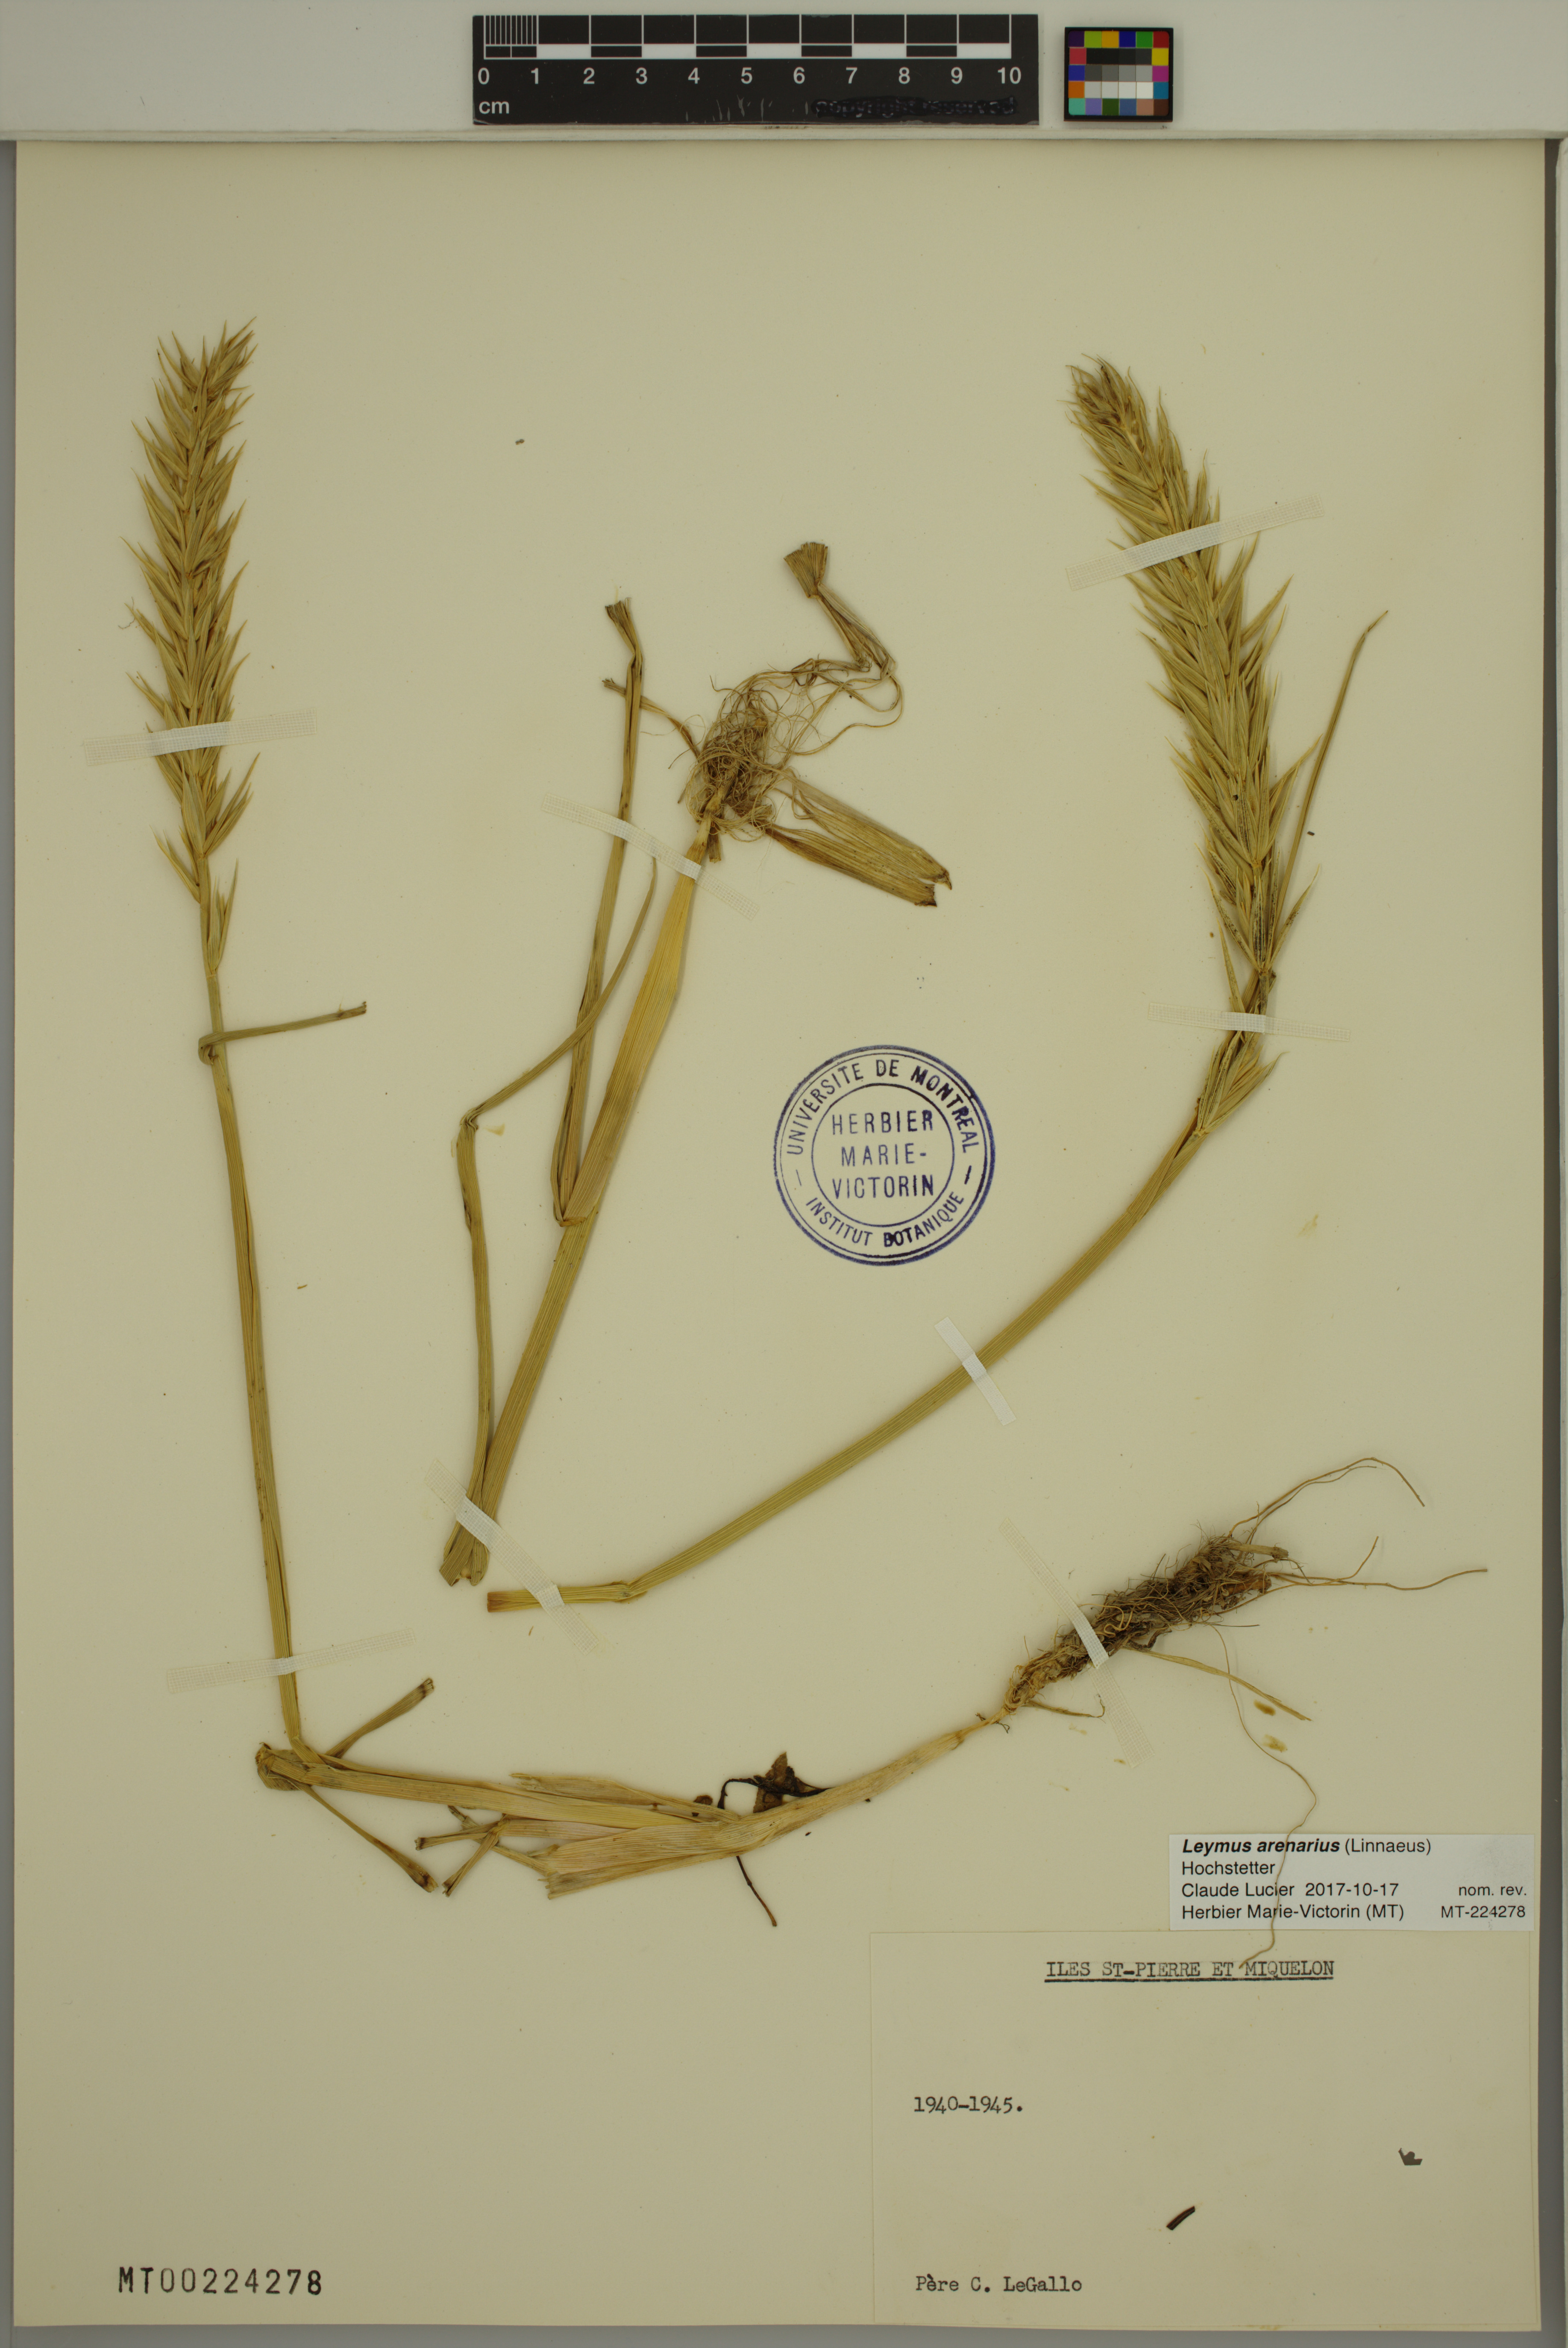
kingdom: Plantae
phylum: Tracheophyta
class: Liliopsida
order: Poales
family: Poaceae
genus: Leymus
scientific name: Leymus arenarius
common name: Lyme-grass
